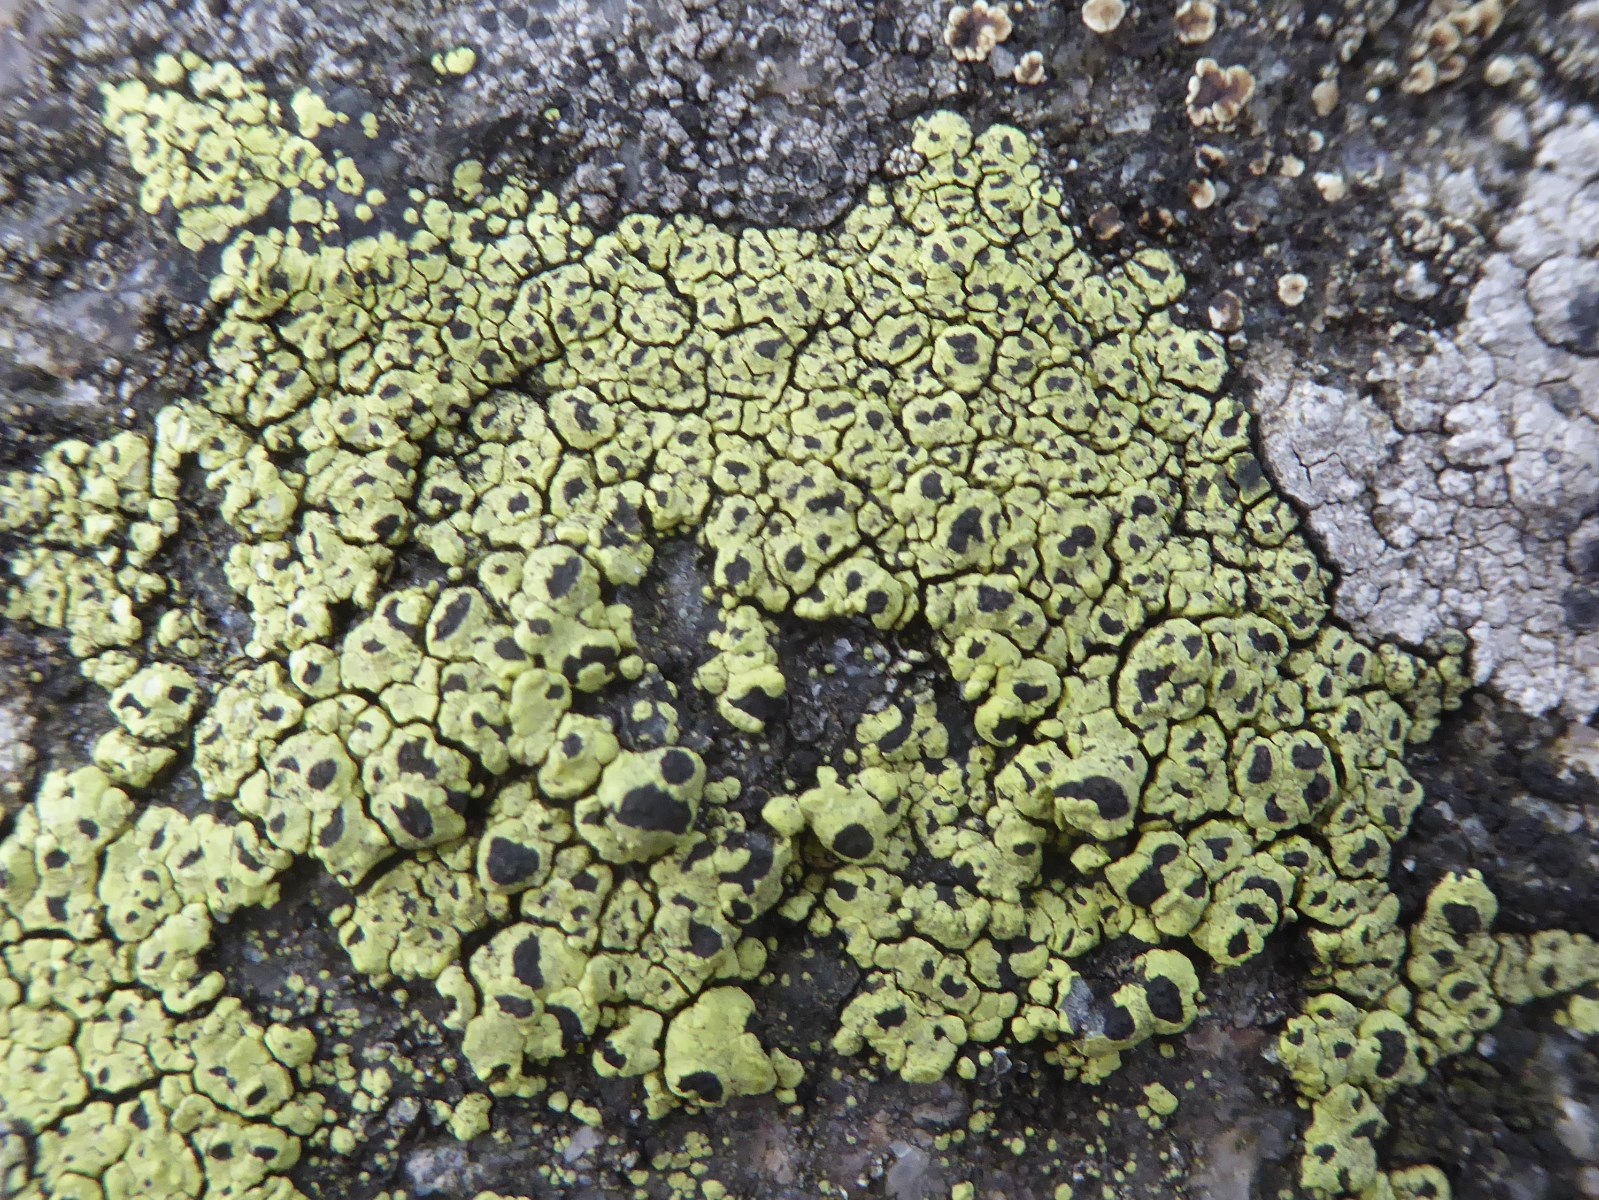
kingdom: Fungi
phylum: Ascomycota
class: Lecanoromycetes
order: Rhizocarpales
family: Rhizocarpaceae
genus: Rhizocarpon
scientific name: Rhizocarpon lecanorinum
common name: krave-landkortlav
